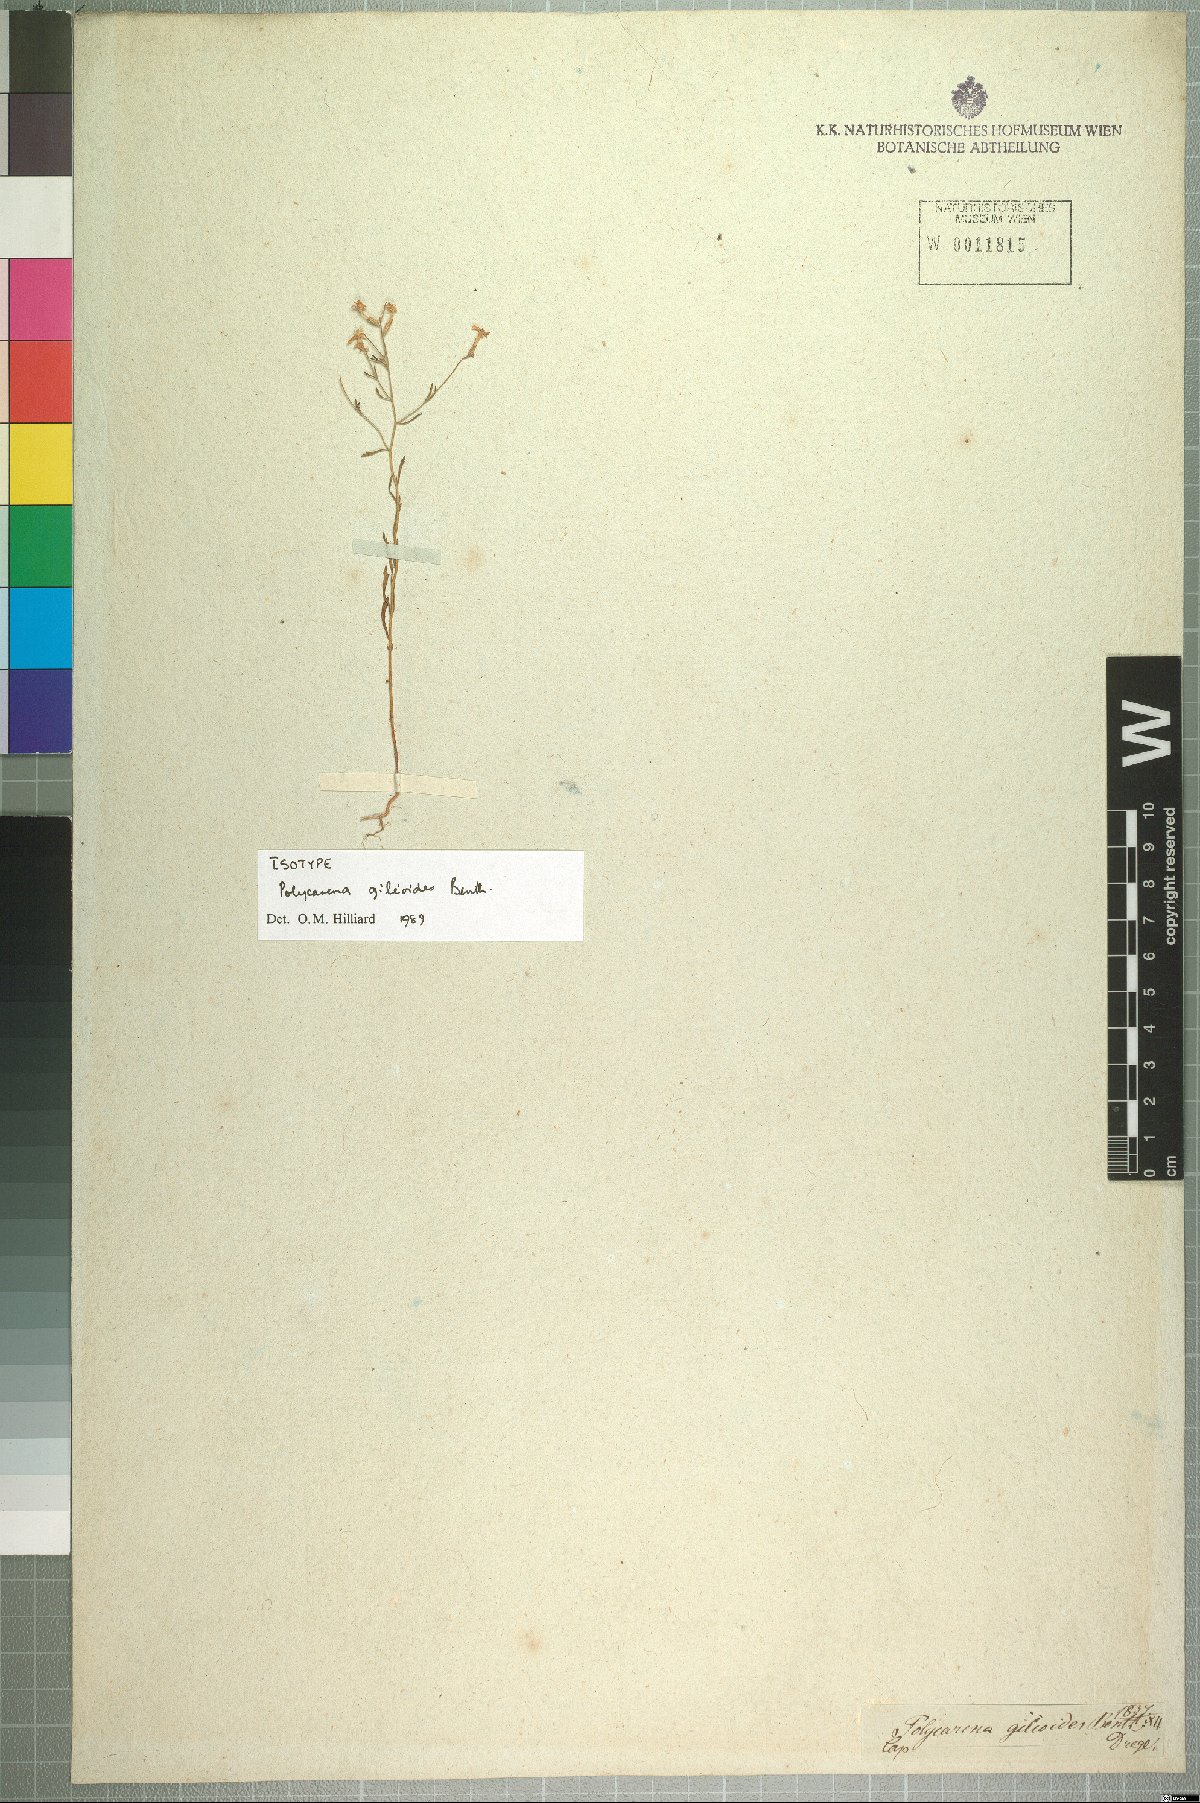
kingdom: Plantae
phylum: Tracheophyta
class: Magnoliopsida
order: Lamiales
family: Scrophulariaceae
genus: Polycarena
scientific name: Polycarena gilioides
